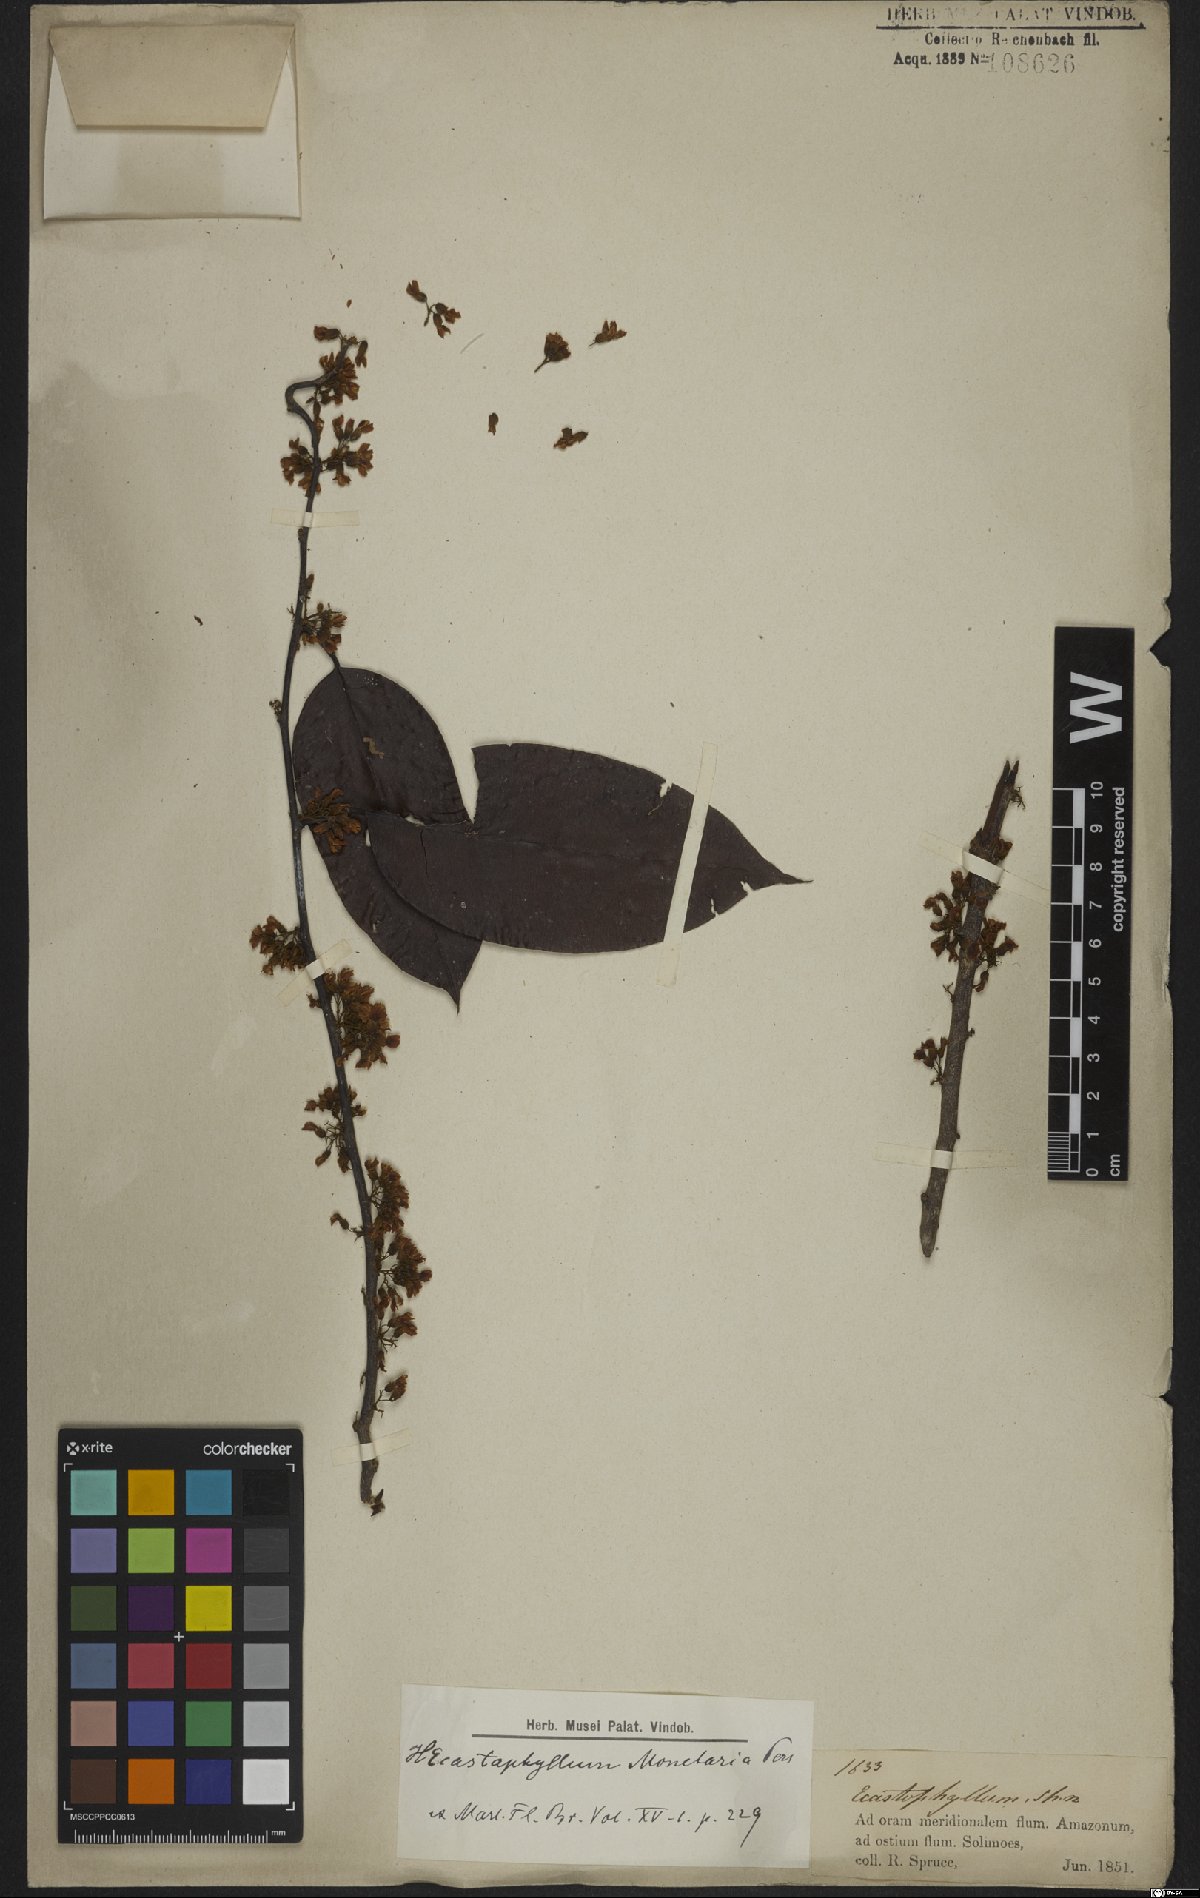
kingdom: Plantae
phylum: Tracheophyta
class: Magnoliopsida
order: Fabales
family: Fabaceae
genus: Dalbergia
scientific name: Dalbergia ovalis
